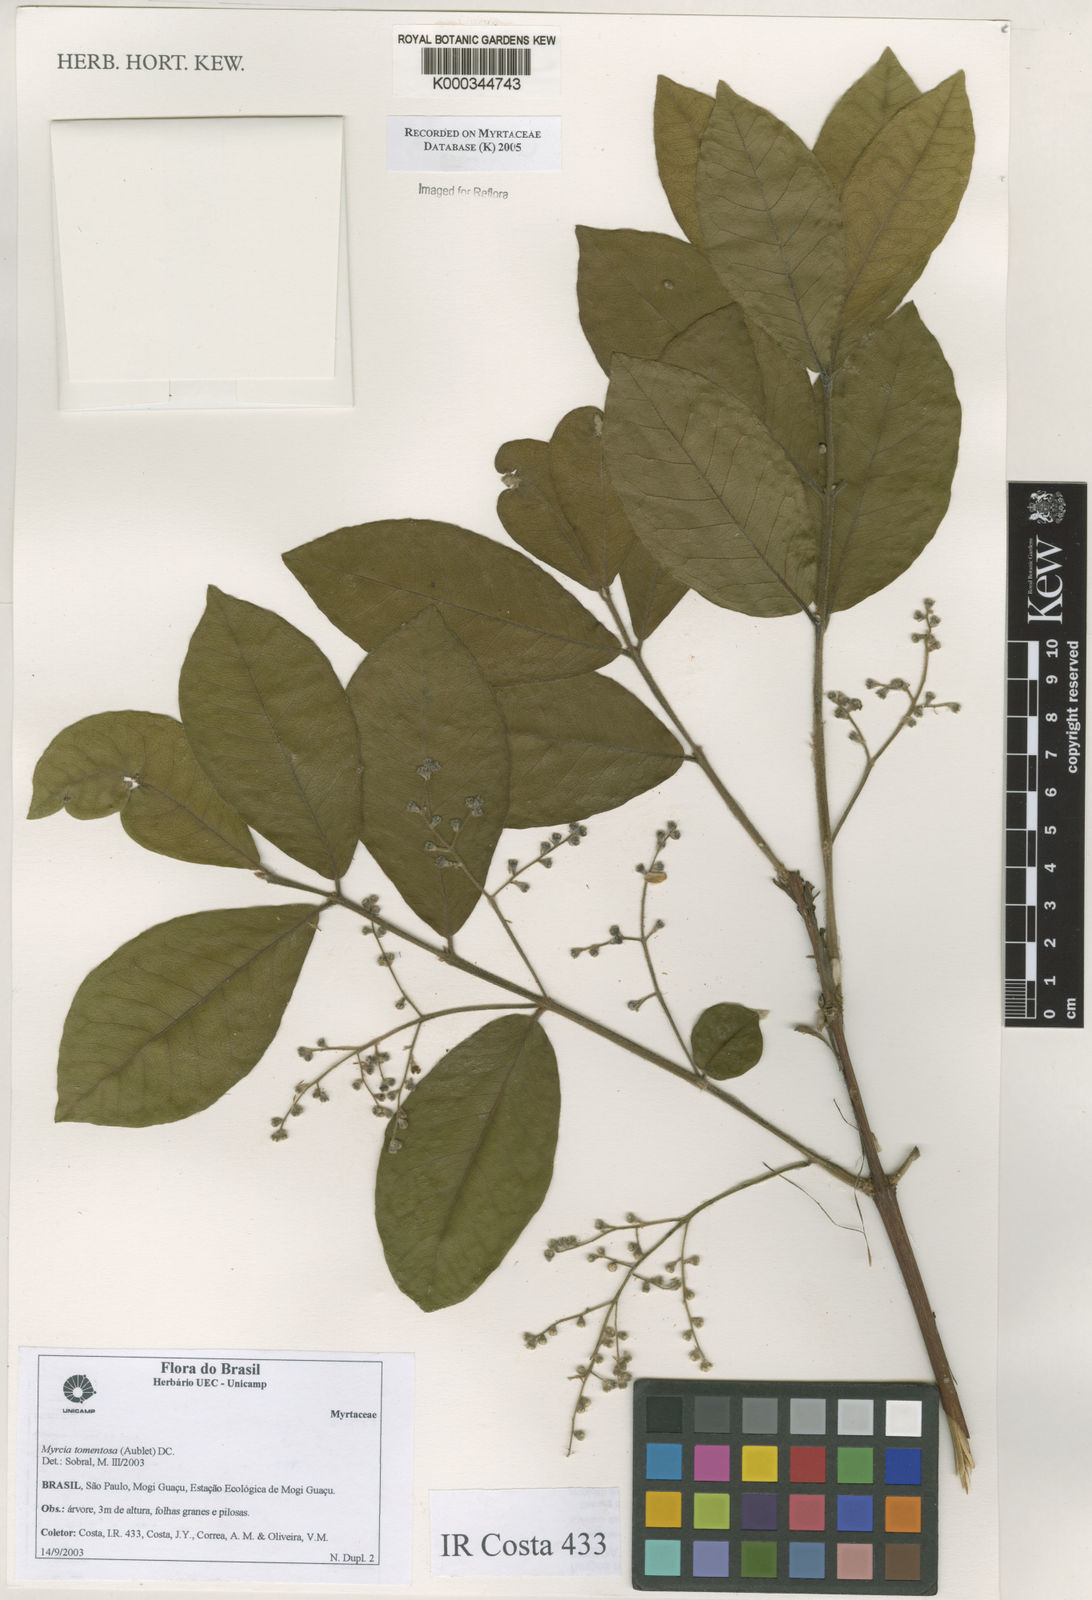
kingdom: Plantae
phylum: Tracheophyta
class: Magnoliopsida
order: Myrtales
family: Myrtaceae
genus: Myrcia
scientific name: Myrcia tomentosa
